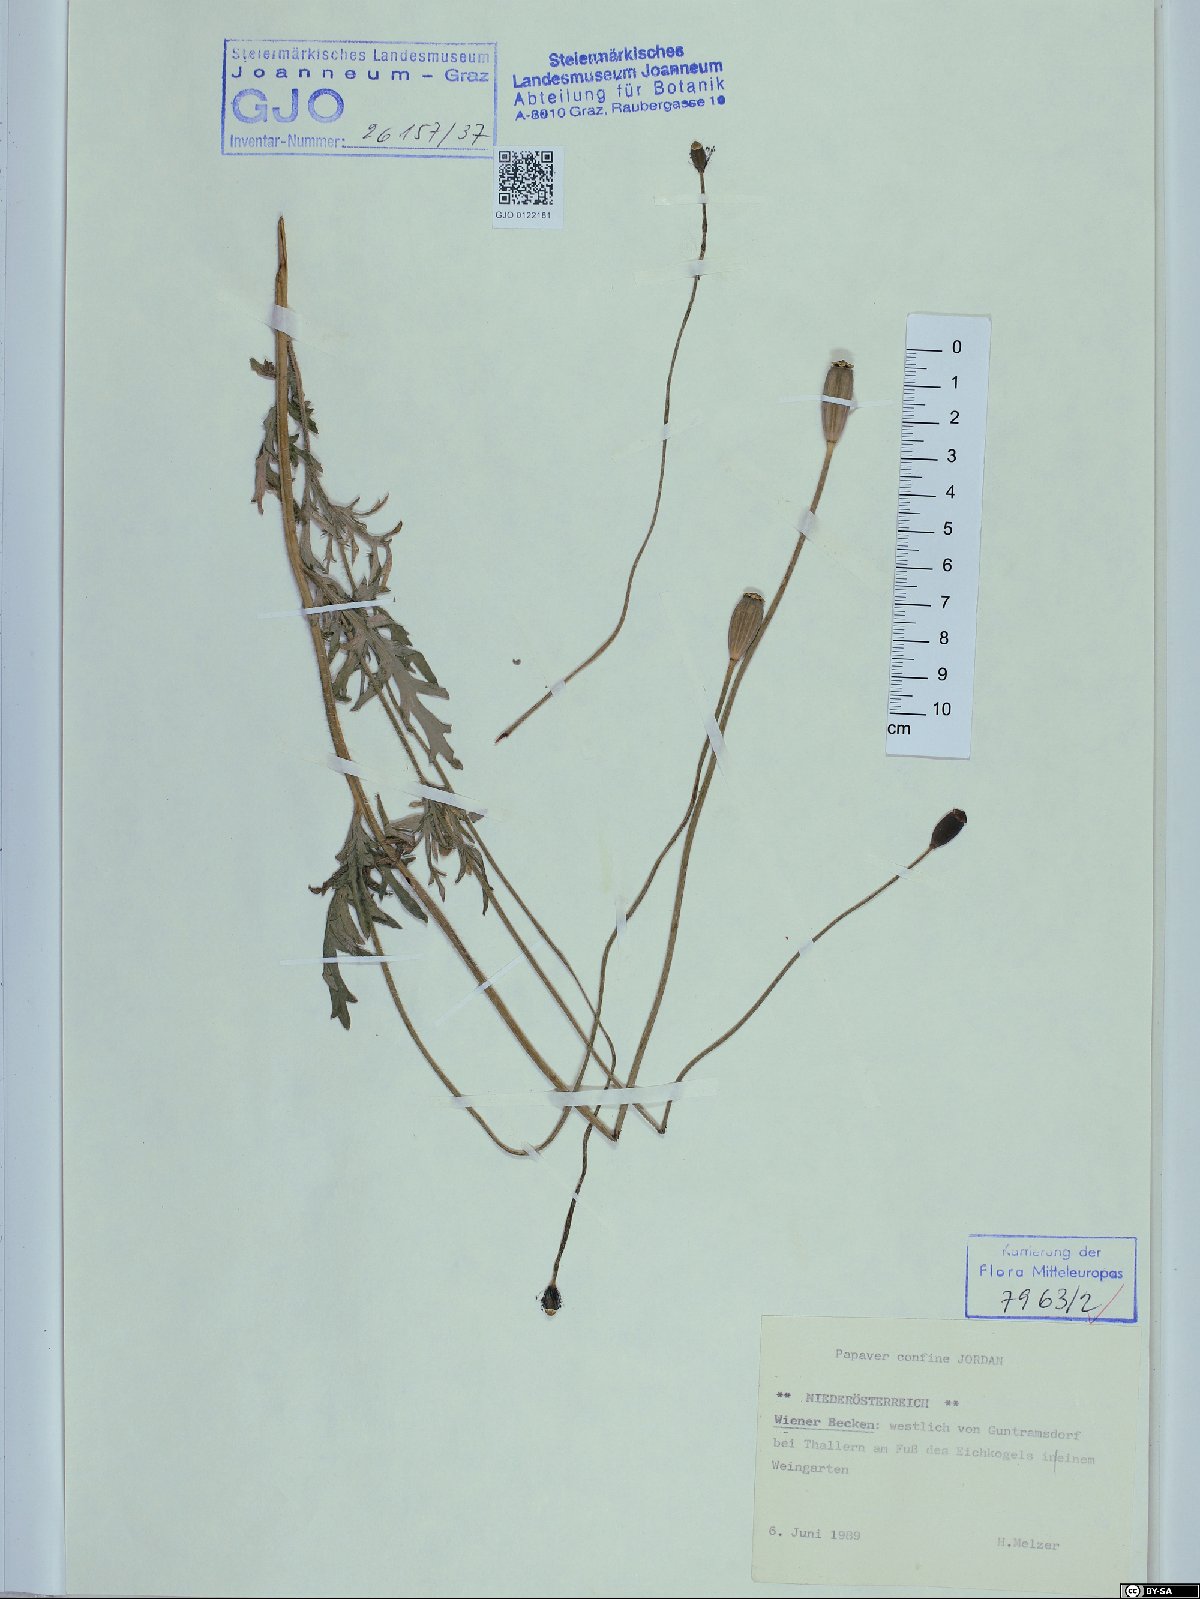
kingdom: Plantae
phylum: Tracheophyta
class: Magnoliopsida
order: Ranunculales
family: Papaveraceae
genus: Papaver
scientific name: Papaver confine
